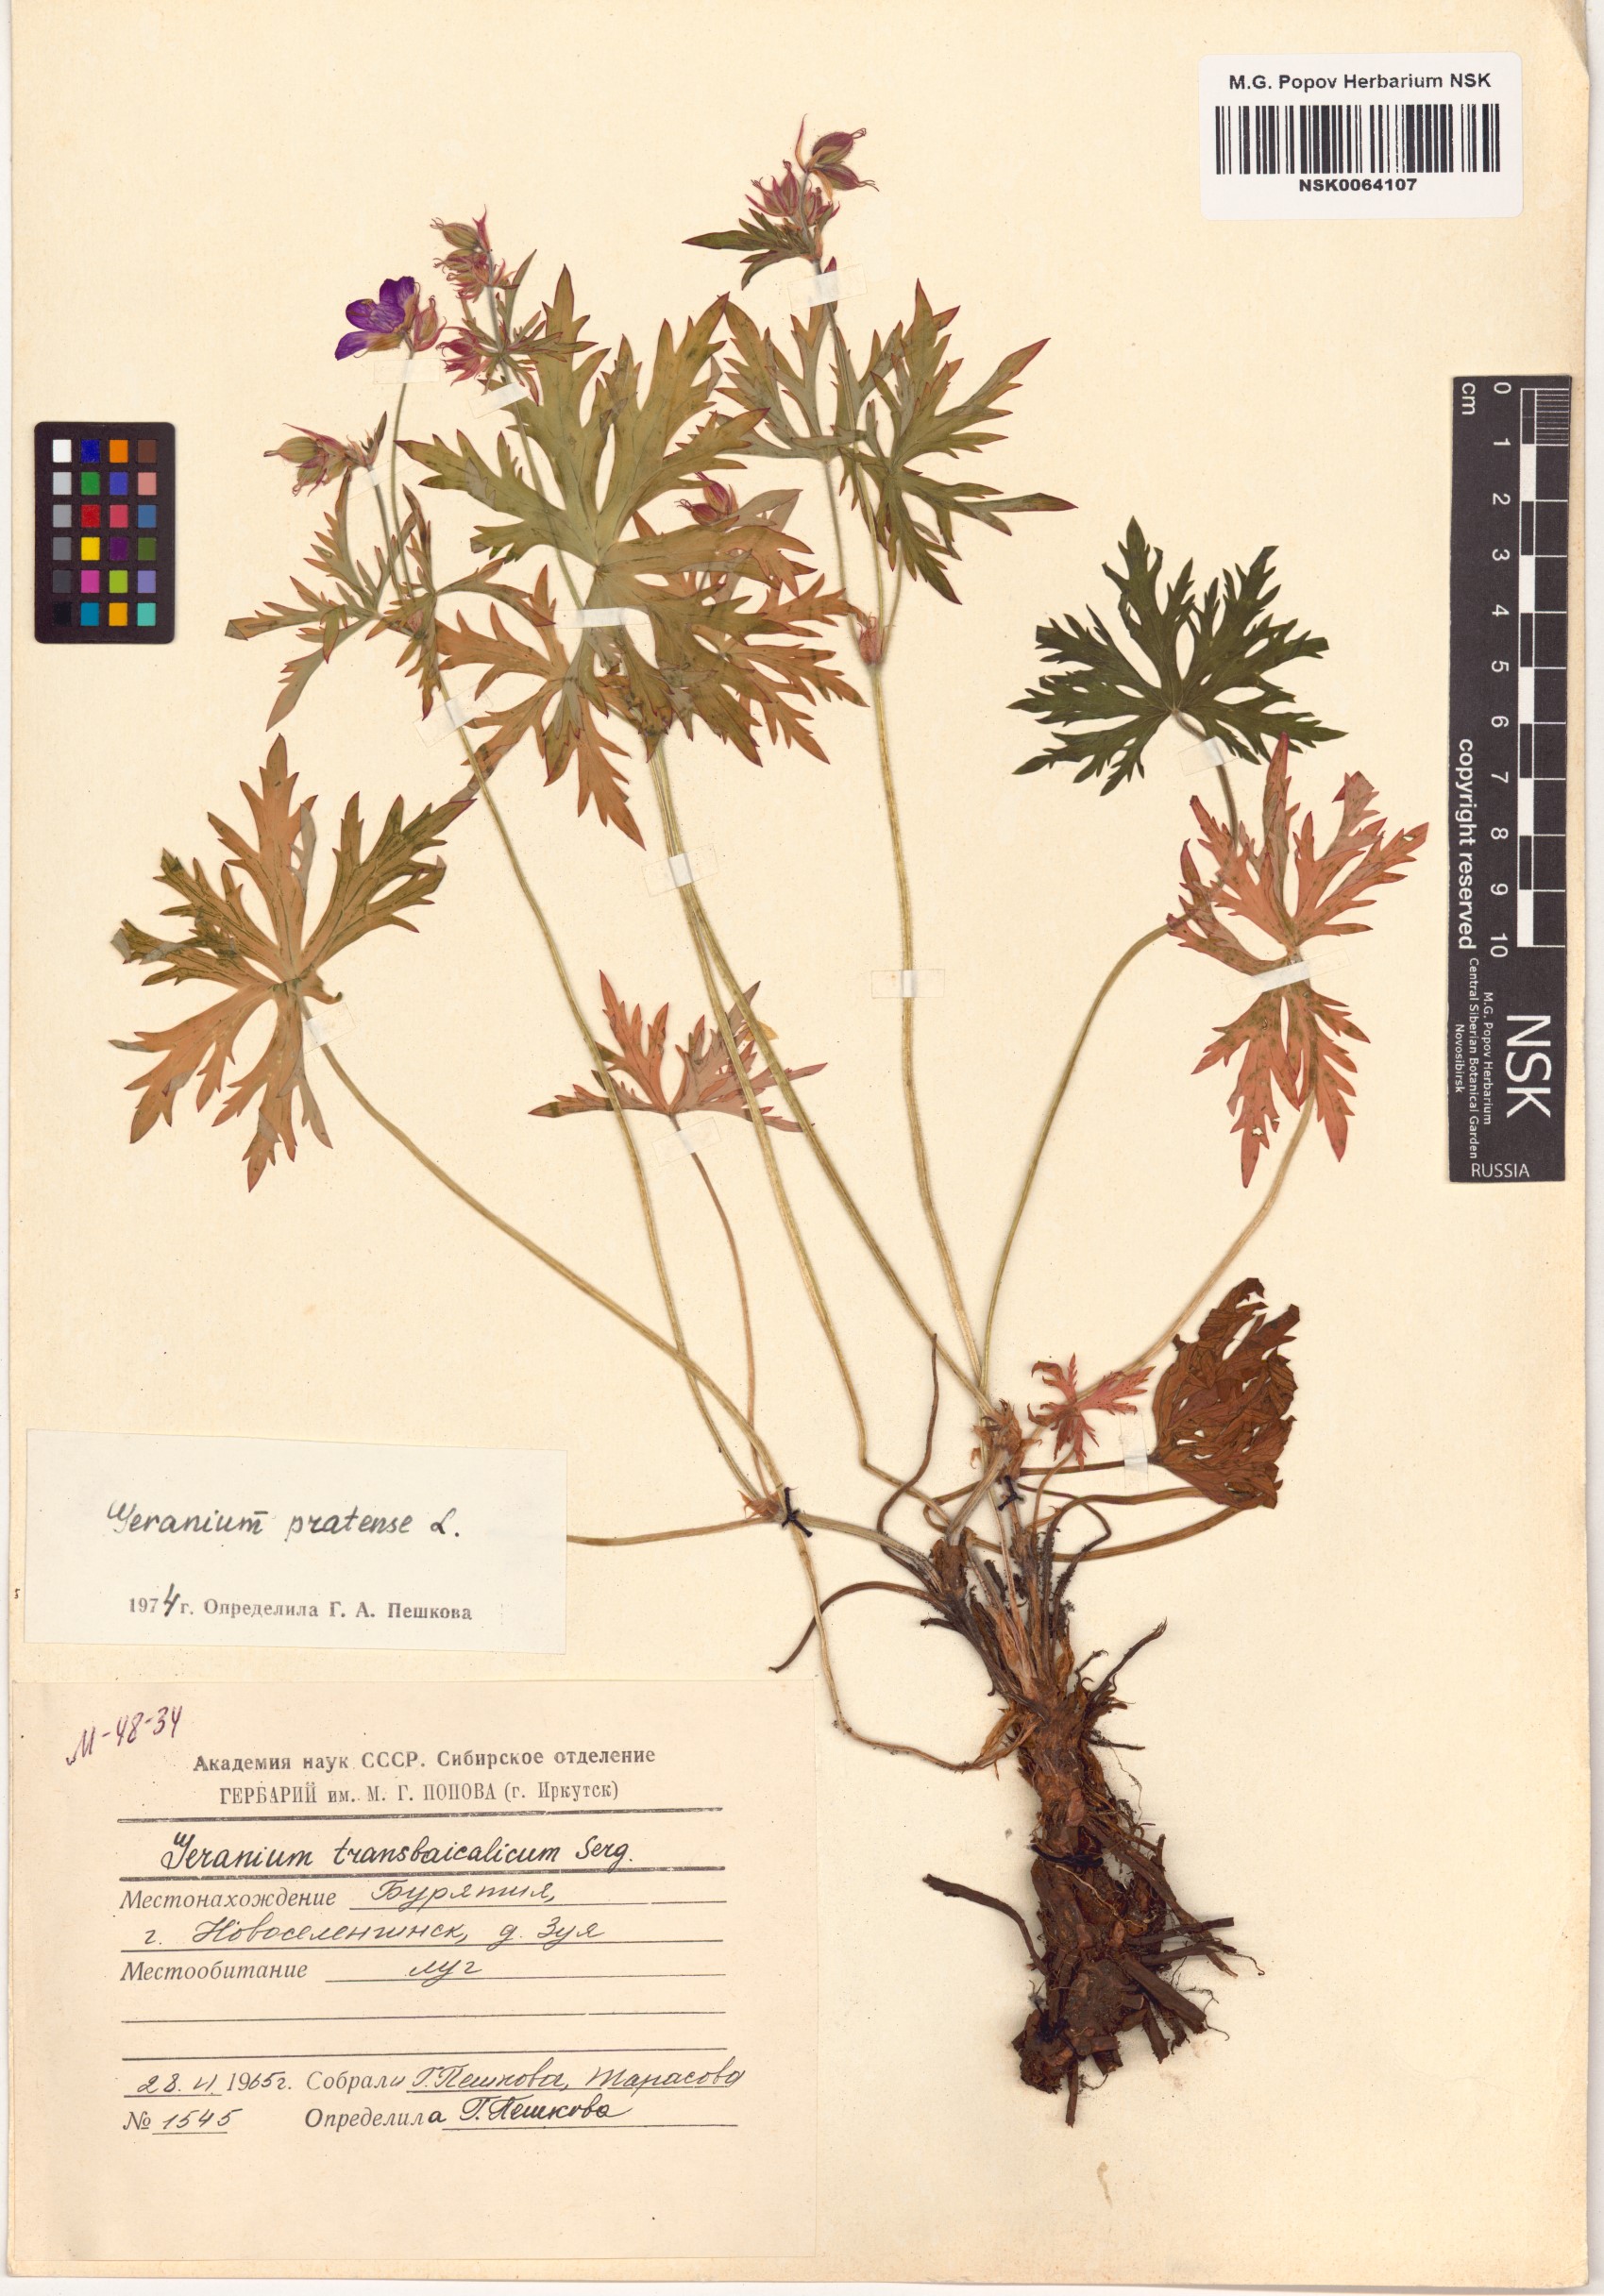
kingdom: Plantae
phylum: Tracheophyta
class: Magnoliopsida
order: Geraniales
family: Geraniaceae
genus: Geranium
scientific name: Geranium pratense
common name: Meadow crane's-bill
